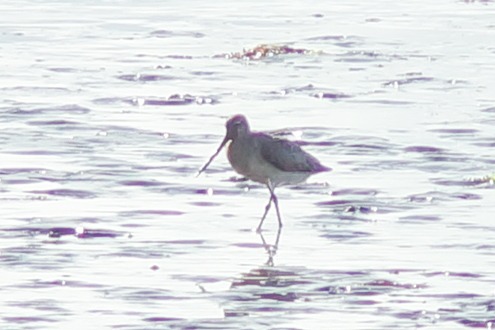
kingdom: Animalia
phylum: Chordata
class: Aves
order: Charadriiformes
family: Scolopacidae
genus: Limosa
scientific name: Limosa lapponica
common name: Lille kobbersneppe
